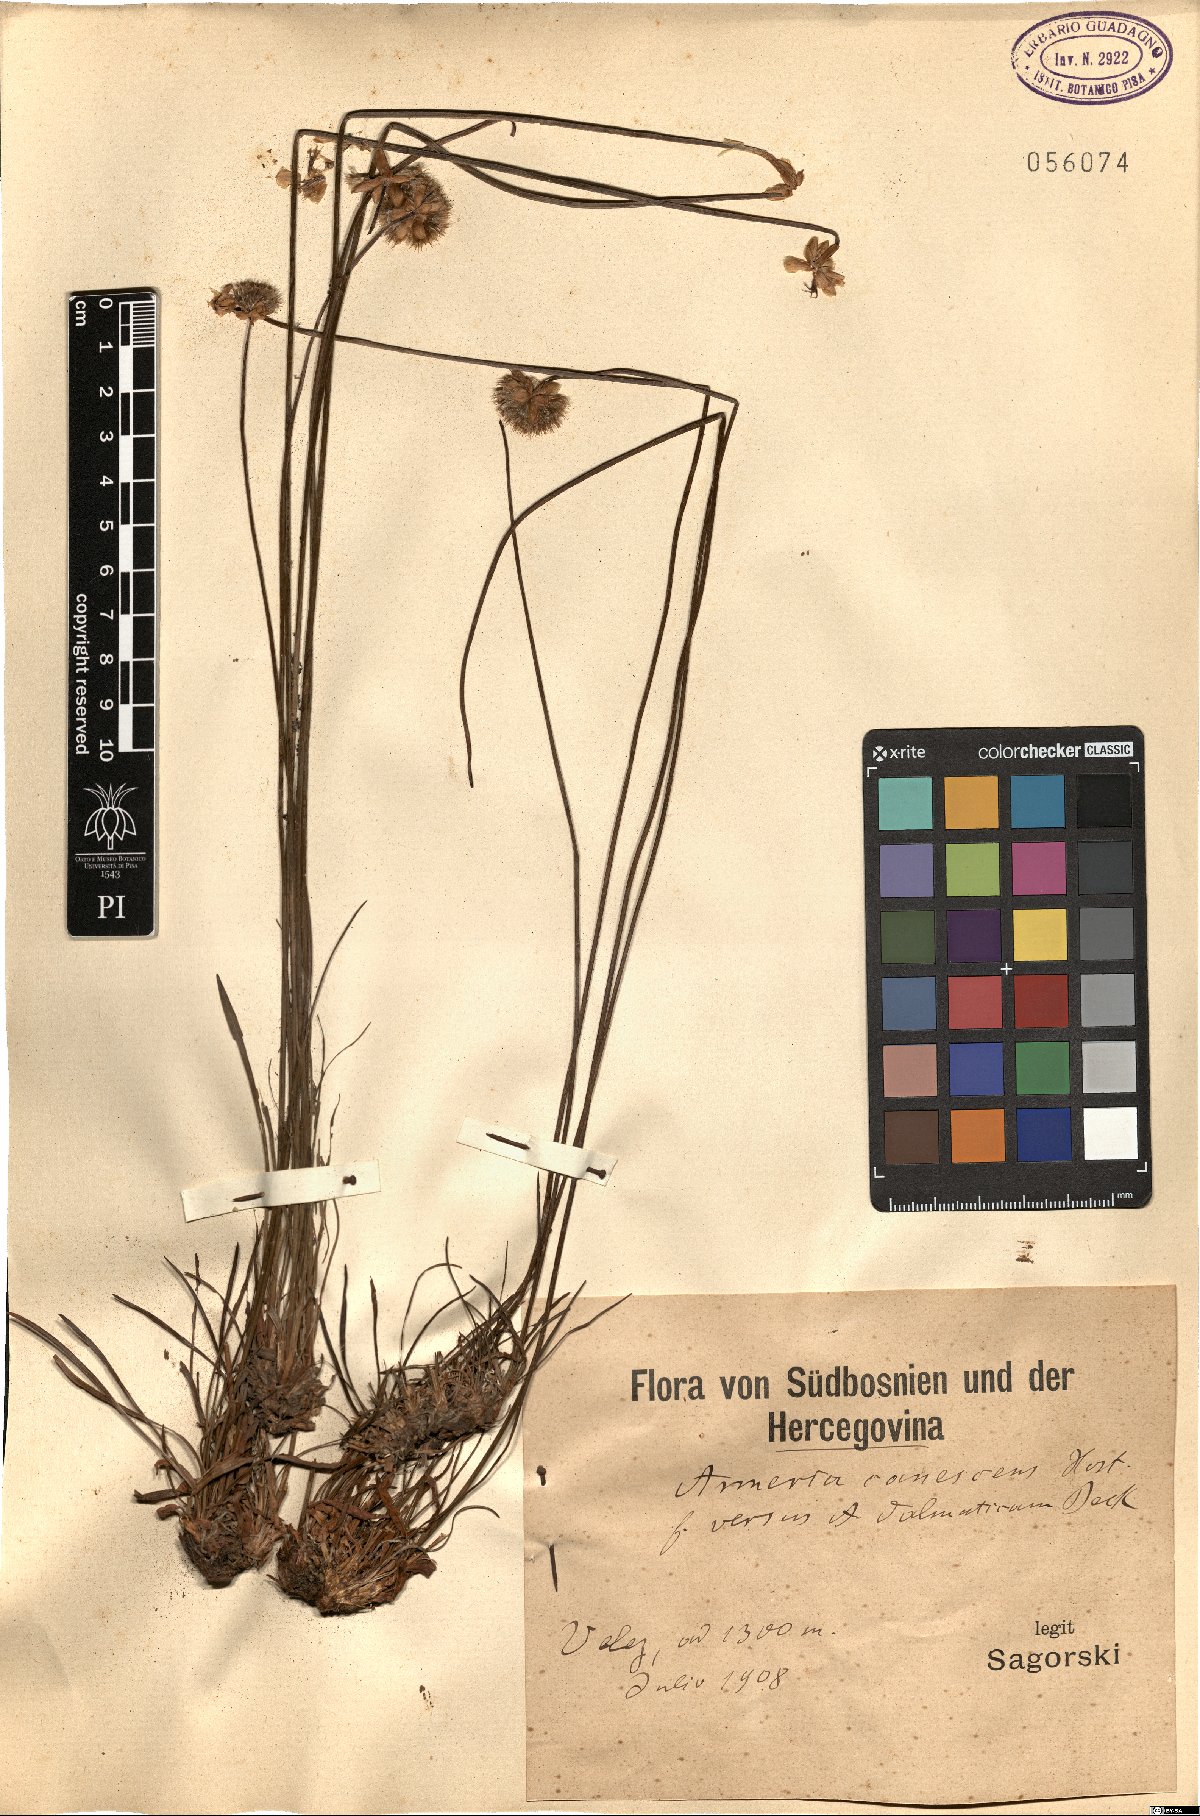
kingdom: Plantae
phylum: Tracheophyta
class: Magnoliopsida
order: Caryophyllales
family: Plumbaginaceae
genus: Armeria
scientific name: Armeria canescens
